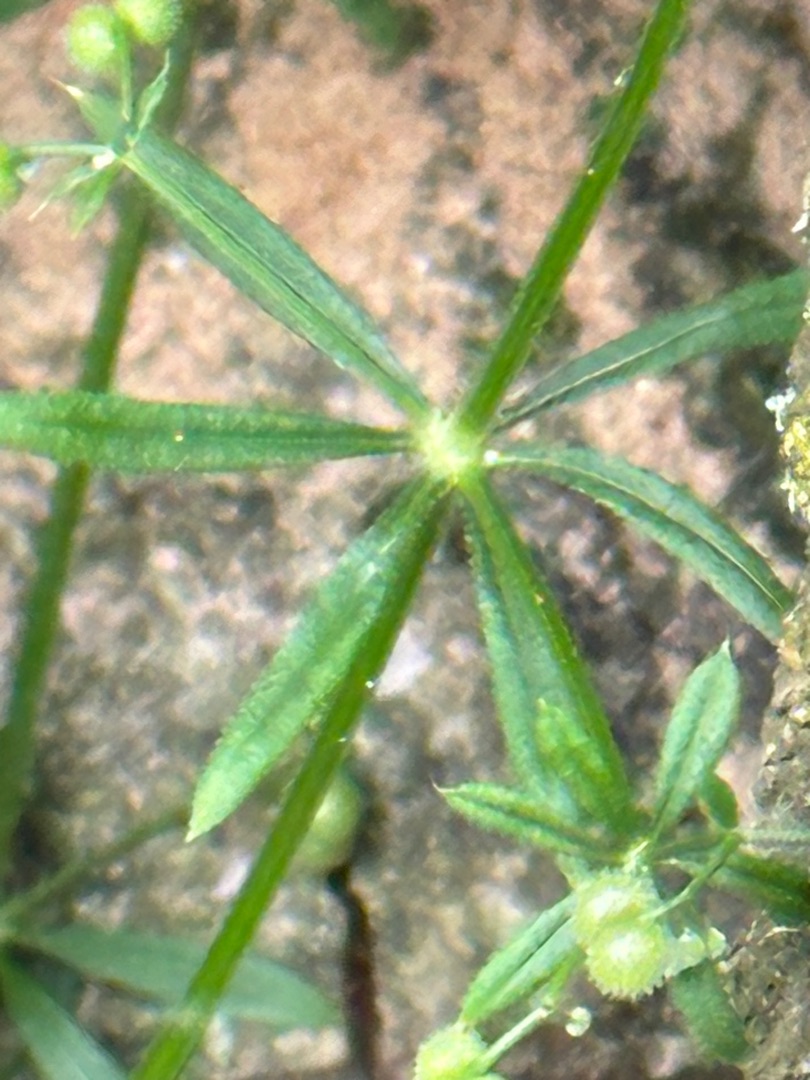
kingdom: Plantae
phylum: Tracheophyta
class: Magnoliopsida
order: Gentianales
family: Rubiaceae
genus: Galium
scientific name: Galium aparine
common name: Burre-snerre
